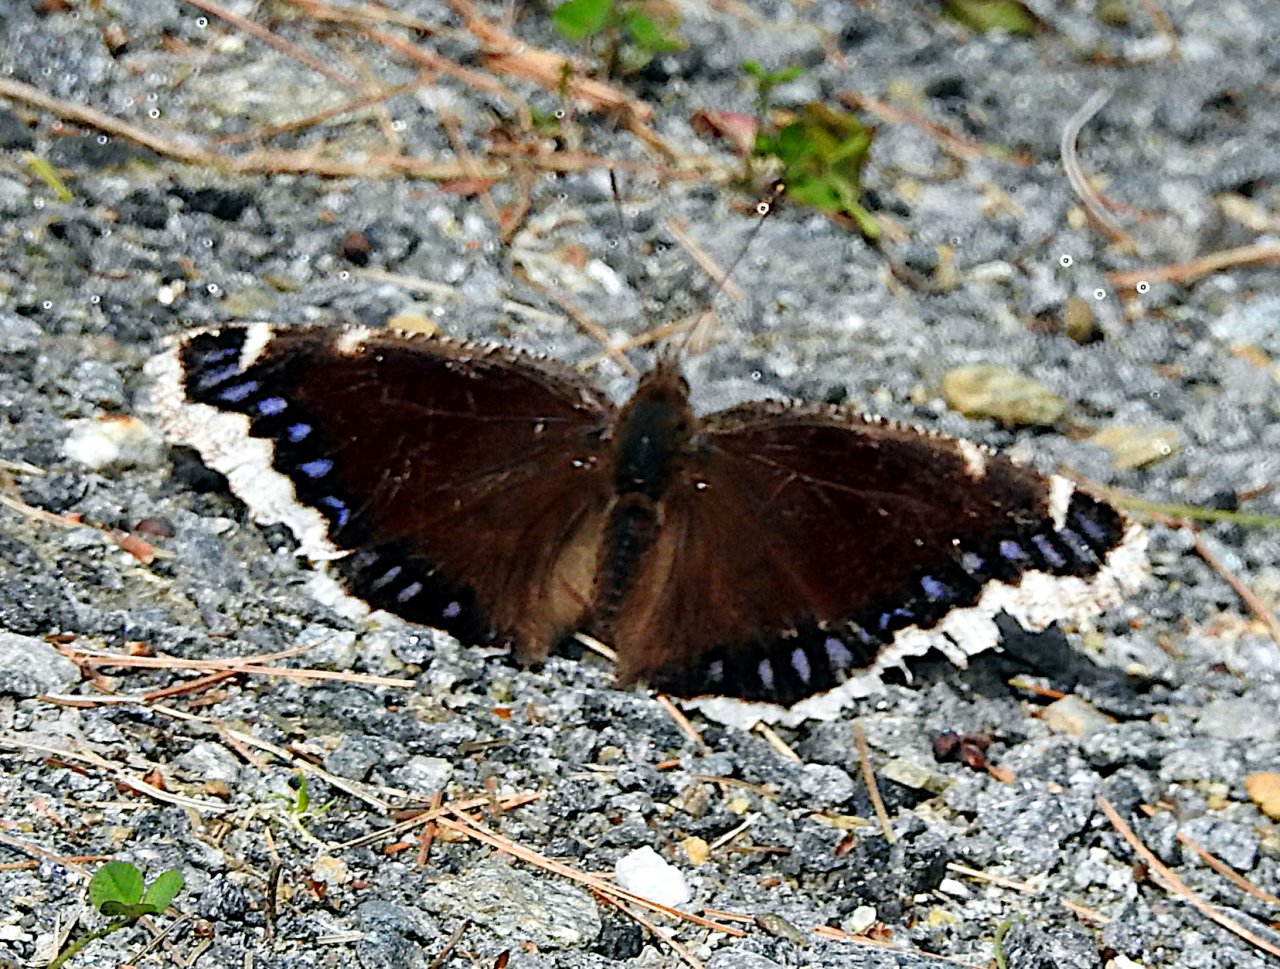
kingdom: Animalia
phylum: Arthropoda
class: Insecta
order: Lepidoptera
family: Nymphalidae
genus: Nymphalis
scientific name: Nymphalis antiopa
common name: Mourning Cloak
